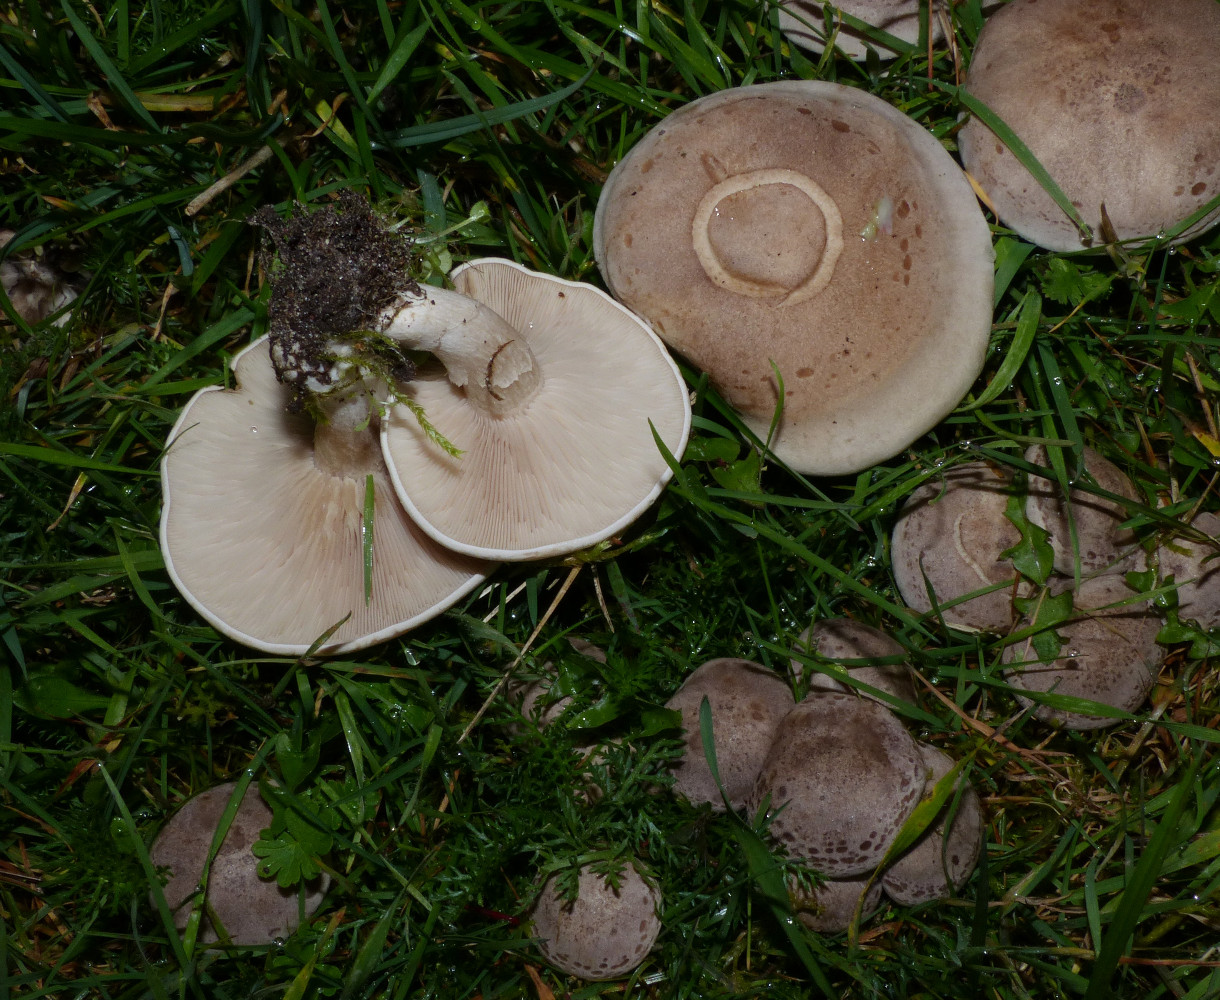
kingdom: Fungi
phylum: Basidiomycota
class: Agaricomycetes
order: Agaricales
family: Tricholomataceae
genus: Lepista
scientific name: Lepista panaeolus
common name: marmoreret hekseringshat
